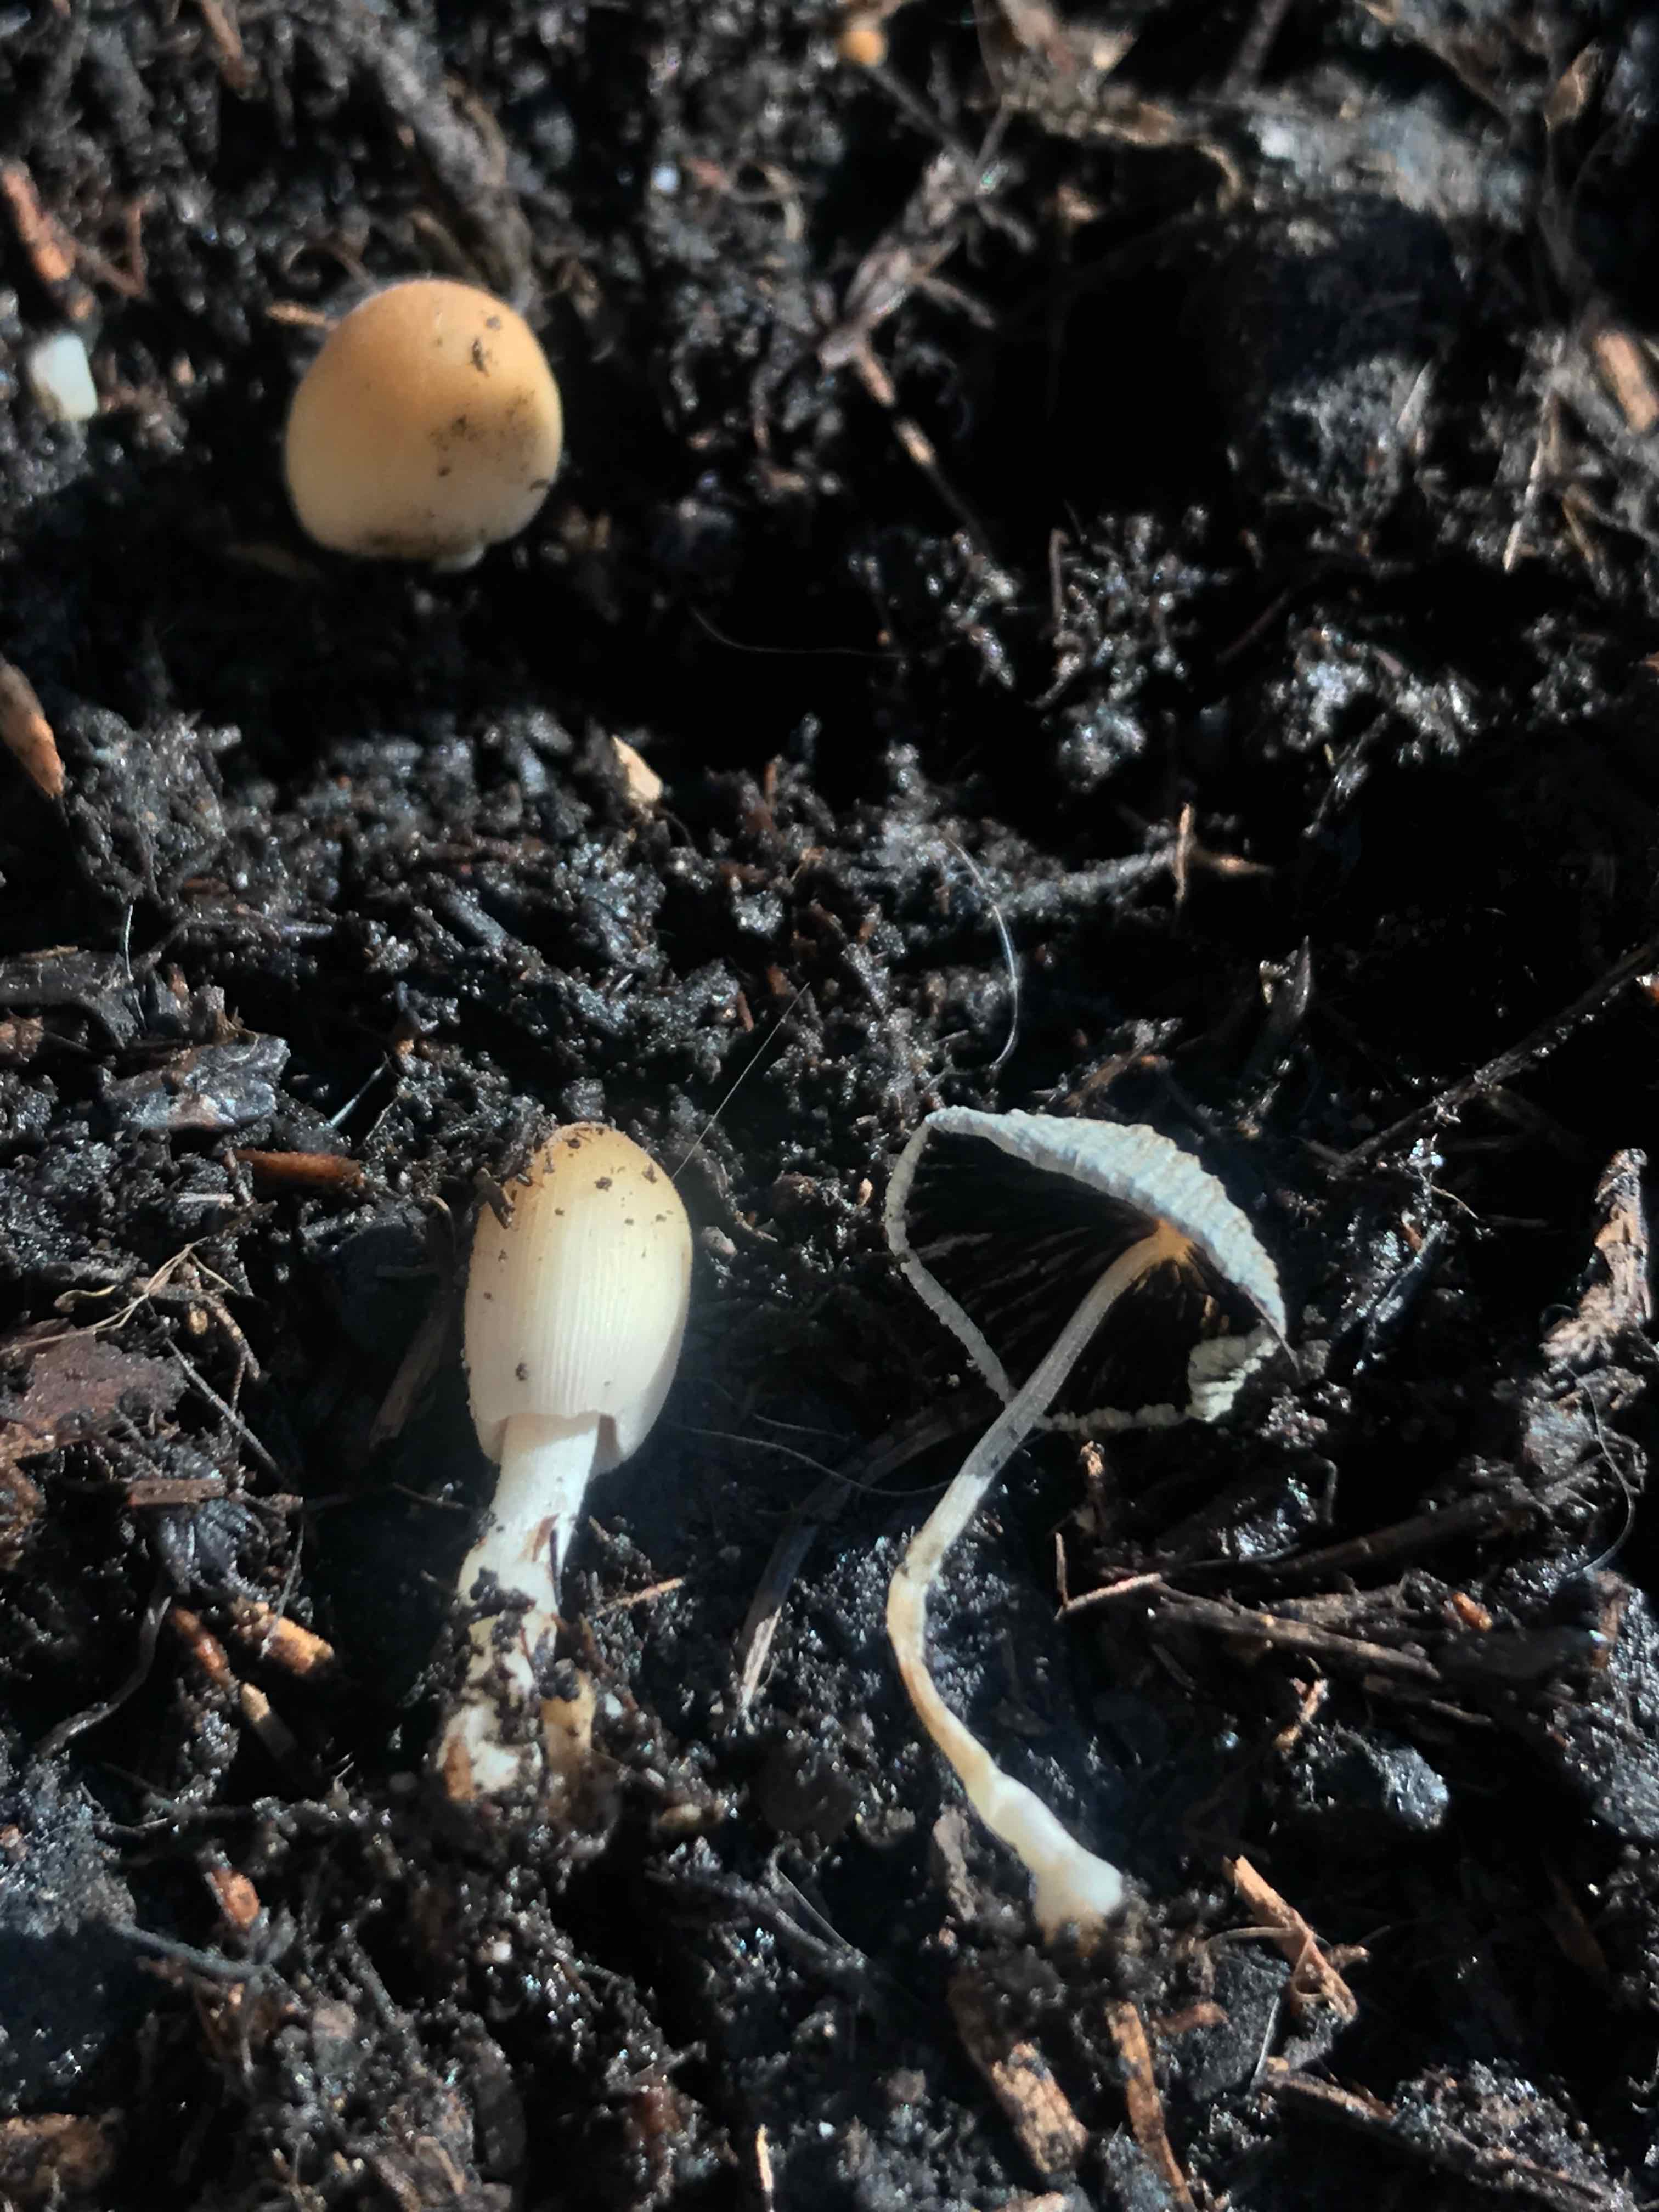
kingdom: Fungi
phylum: Basidiomycota
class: Agaricomycetes
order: Agaricales
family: Psathyrellaceae
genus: Coprinellus
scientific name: Coprinellus
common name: blækhat
